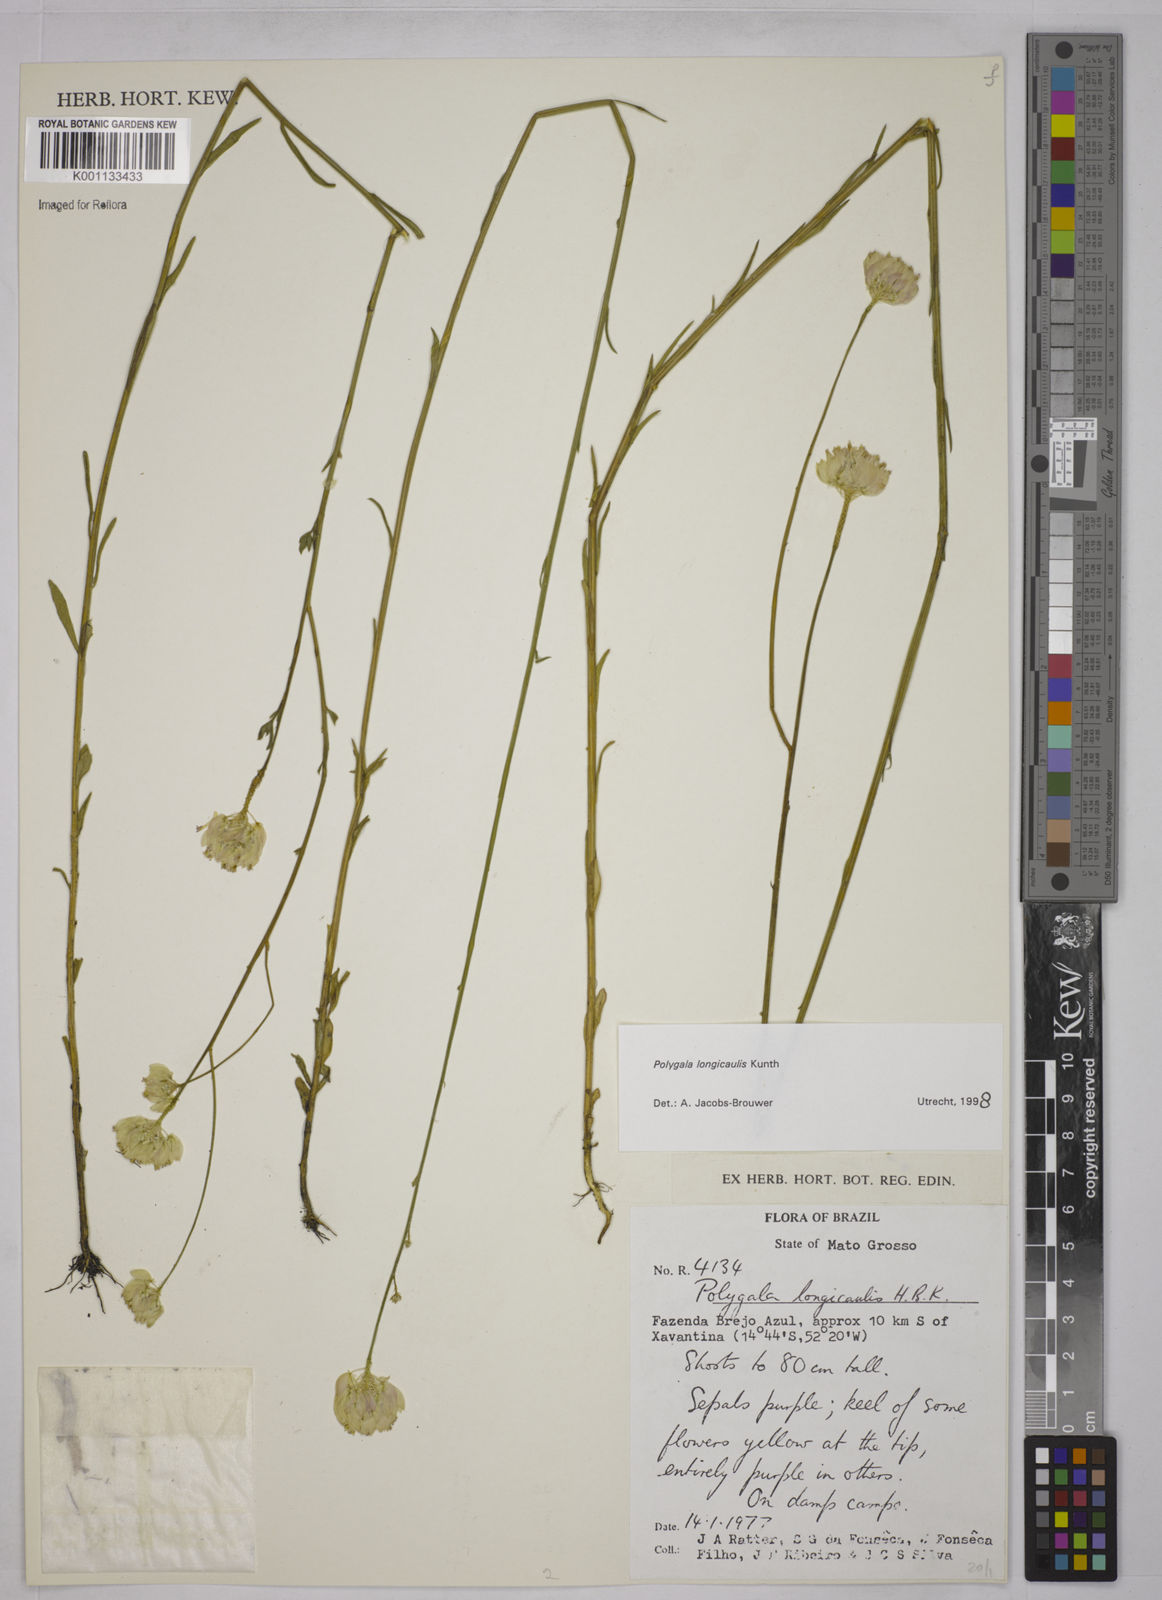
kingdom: Plantae
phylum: Tracheophyta
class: Magnoliopsida
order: Fabales
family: Polygalaceae
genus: Polygala
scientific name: Polygala longicaulis
